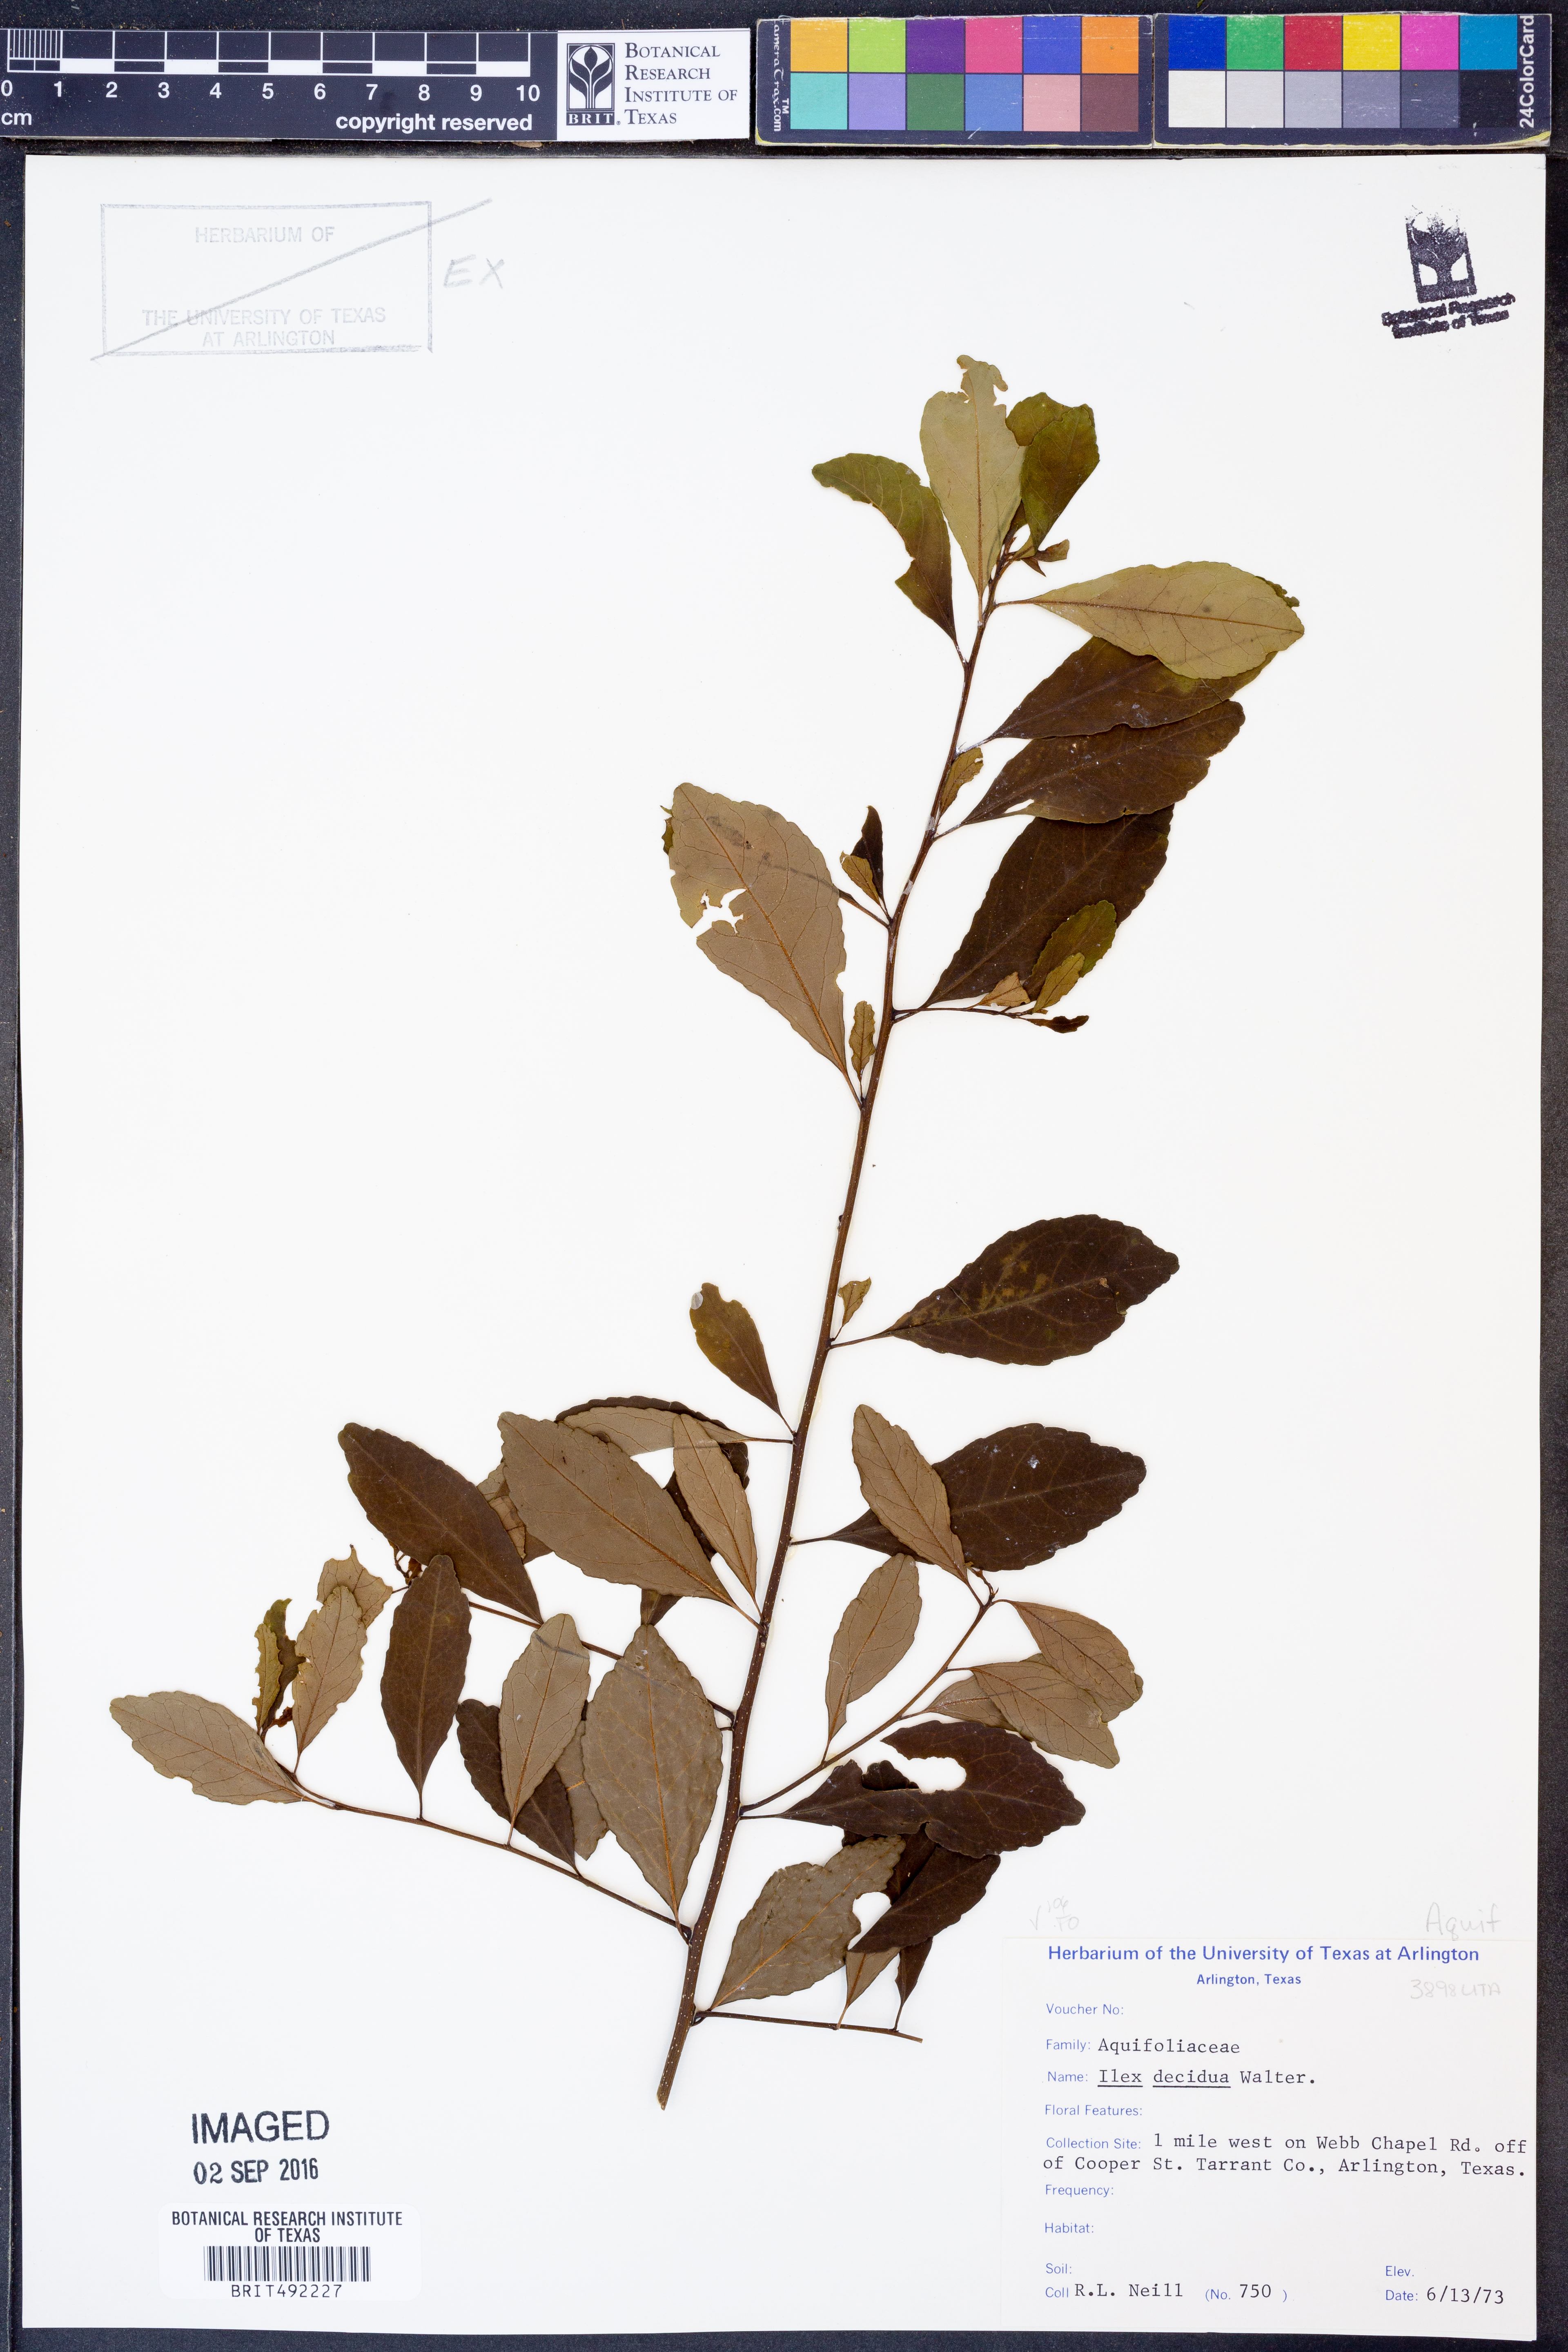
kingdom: Plantae
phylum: Tracheophyta
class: Magnoliopsida
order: Aquifoliales
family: Aquifoliaceae
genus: Ilex
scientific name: Ilex decidua
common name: Possum-haw
